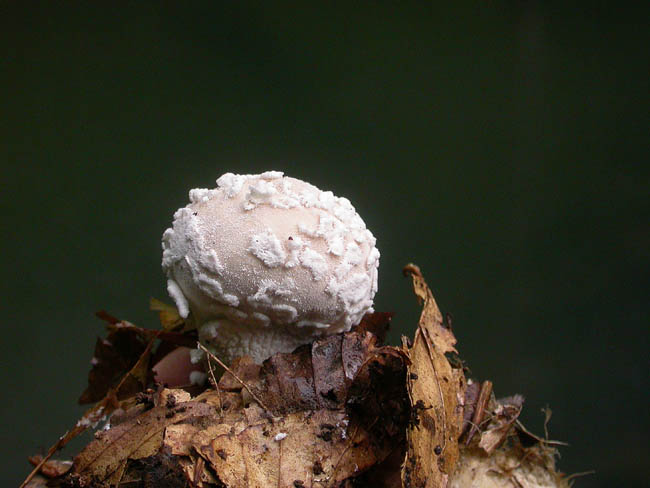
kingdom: Fungi
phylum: Basidiomycota
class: Agaricomycetes
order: Agaricales
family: Lycoperdaceae
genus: Lycoperdon
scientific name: Lycoperdon mammiforme
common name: rosa støvbold
